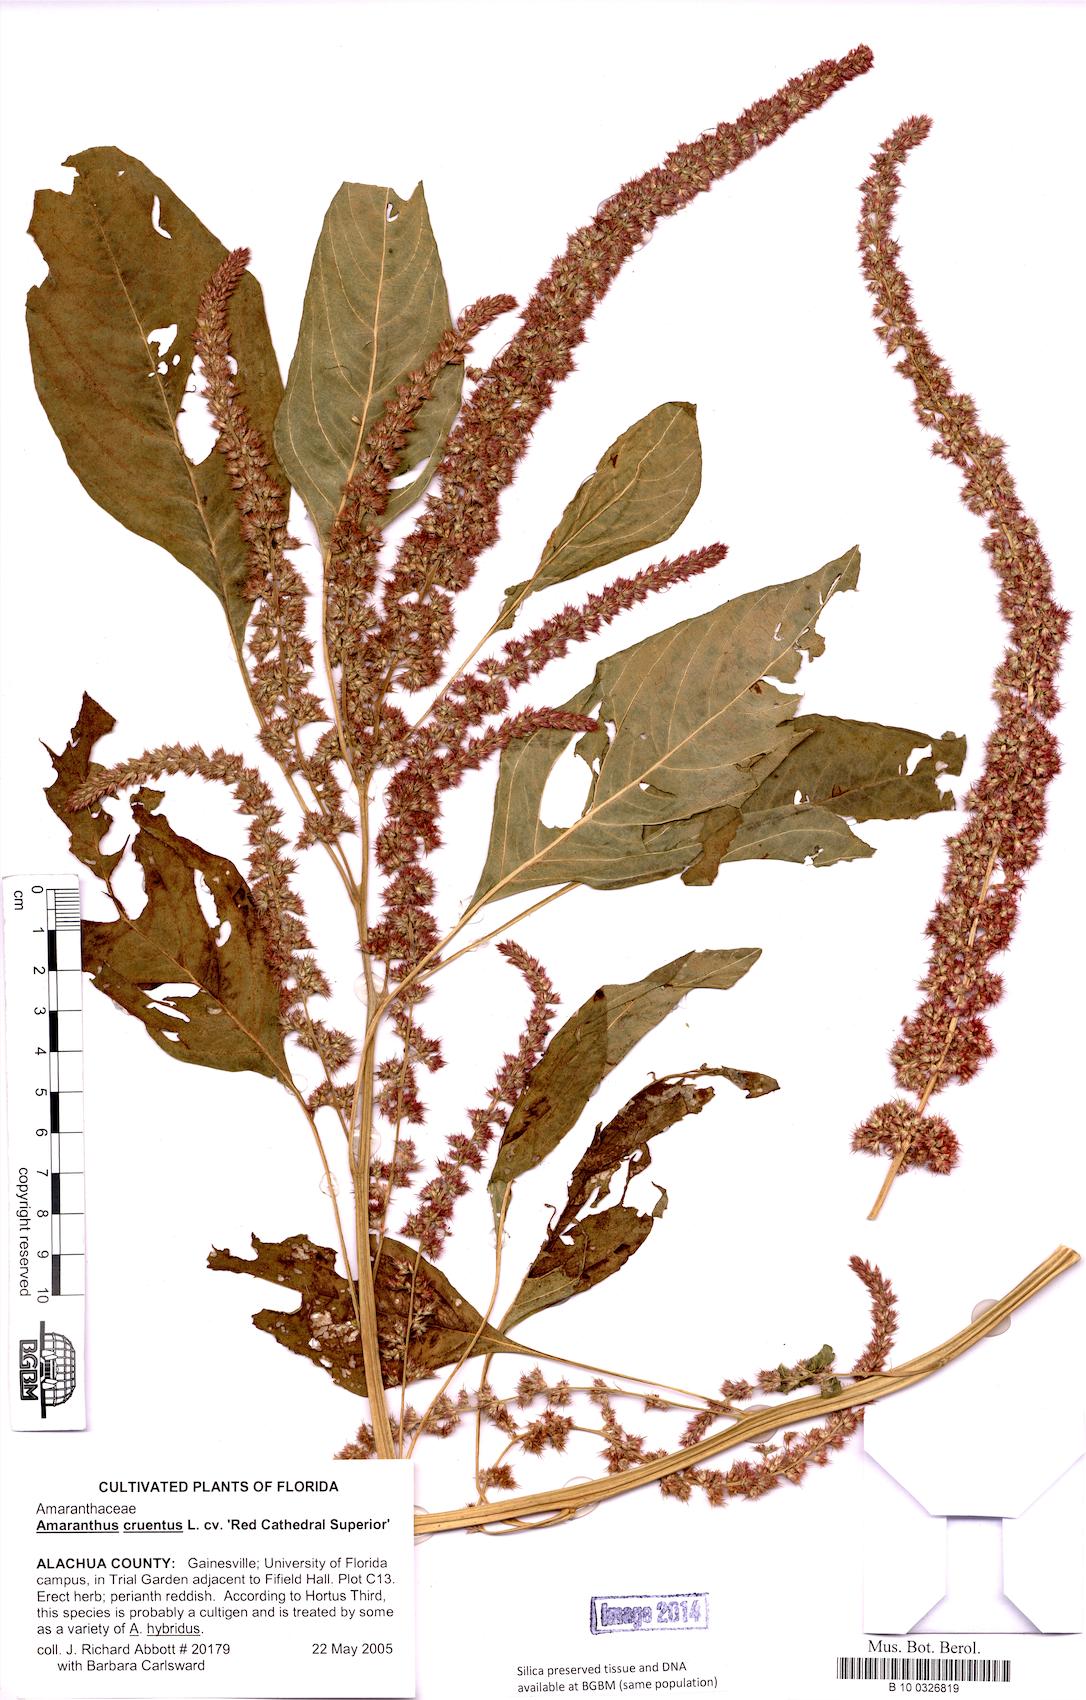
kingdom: Plantae
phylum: Tracheophyta
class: Magnoliopsida
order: Caryophyllales
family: Amaranthaceae
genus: Amaranthus
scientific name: Amaranthus cruentus
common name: Purple amaranth
